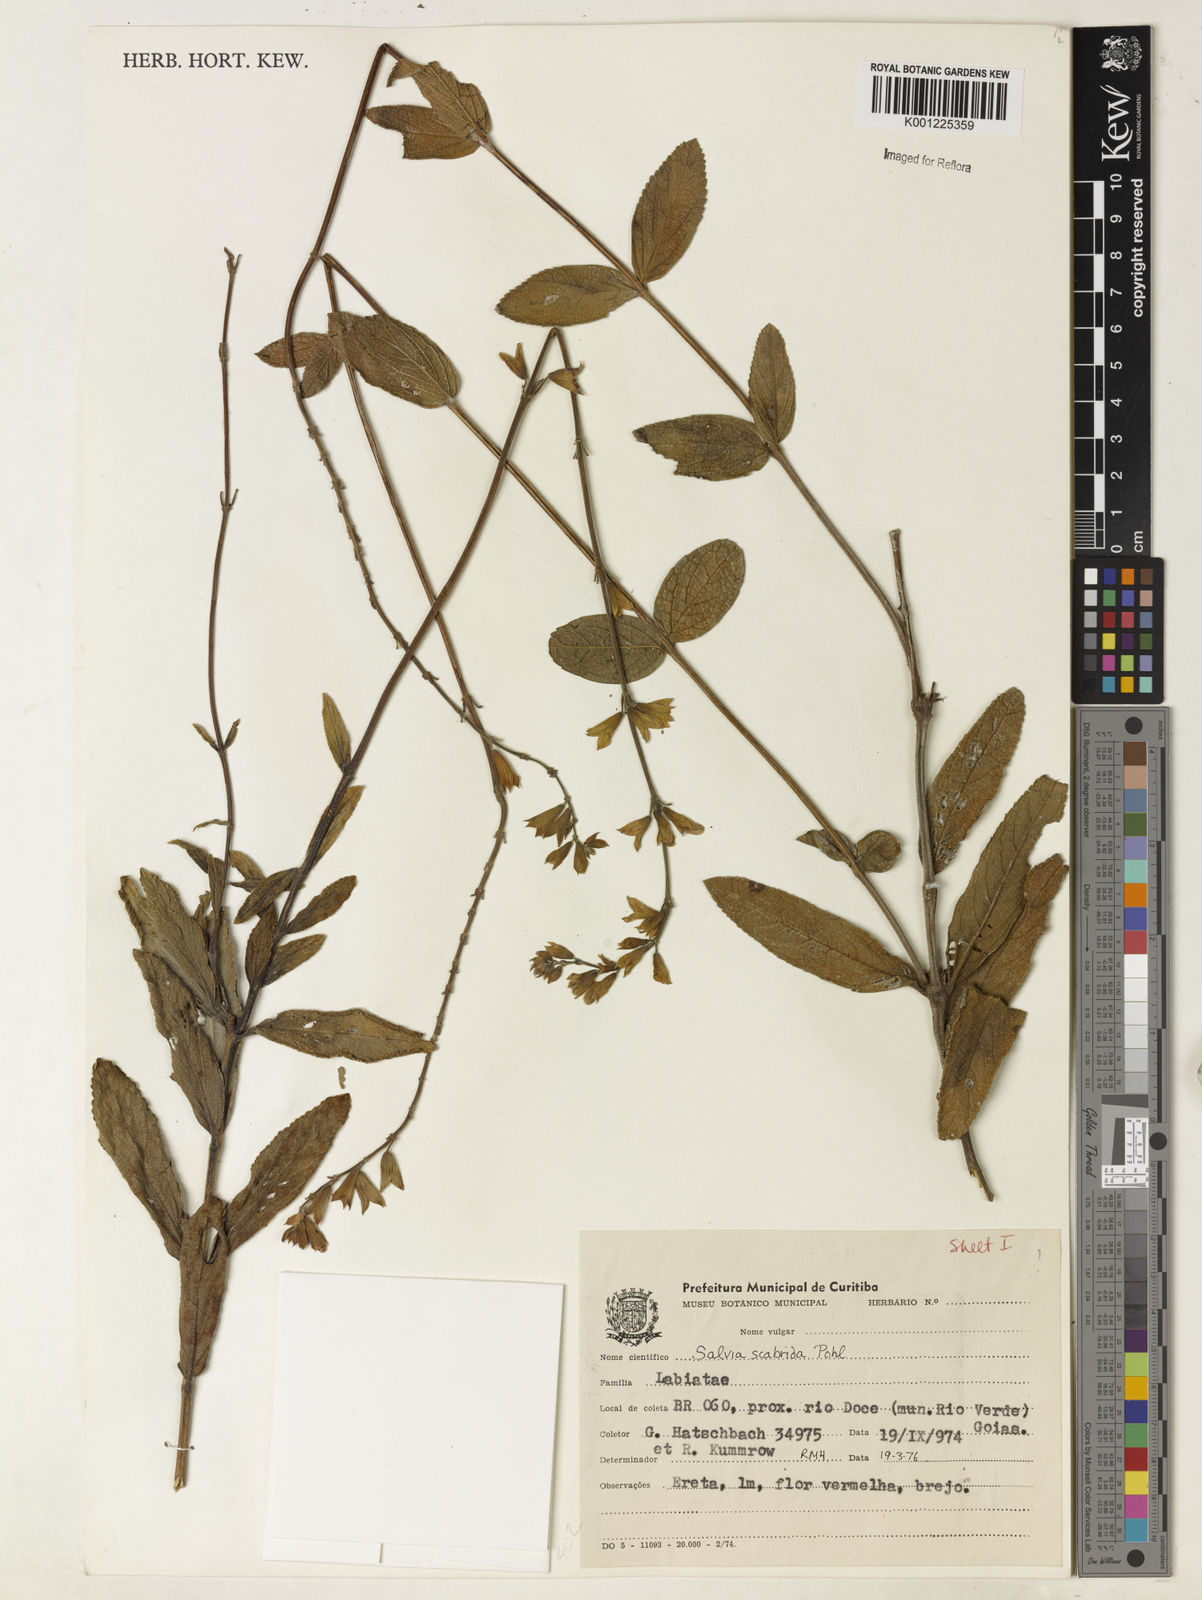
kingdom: Plantae
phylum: Tracheophyta
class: Magnoliopsida
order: Lamiales
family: Lamiaceae
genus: Salvia
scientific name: Salvia scabrida
